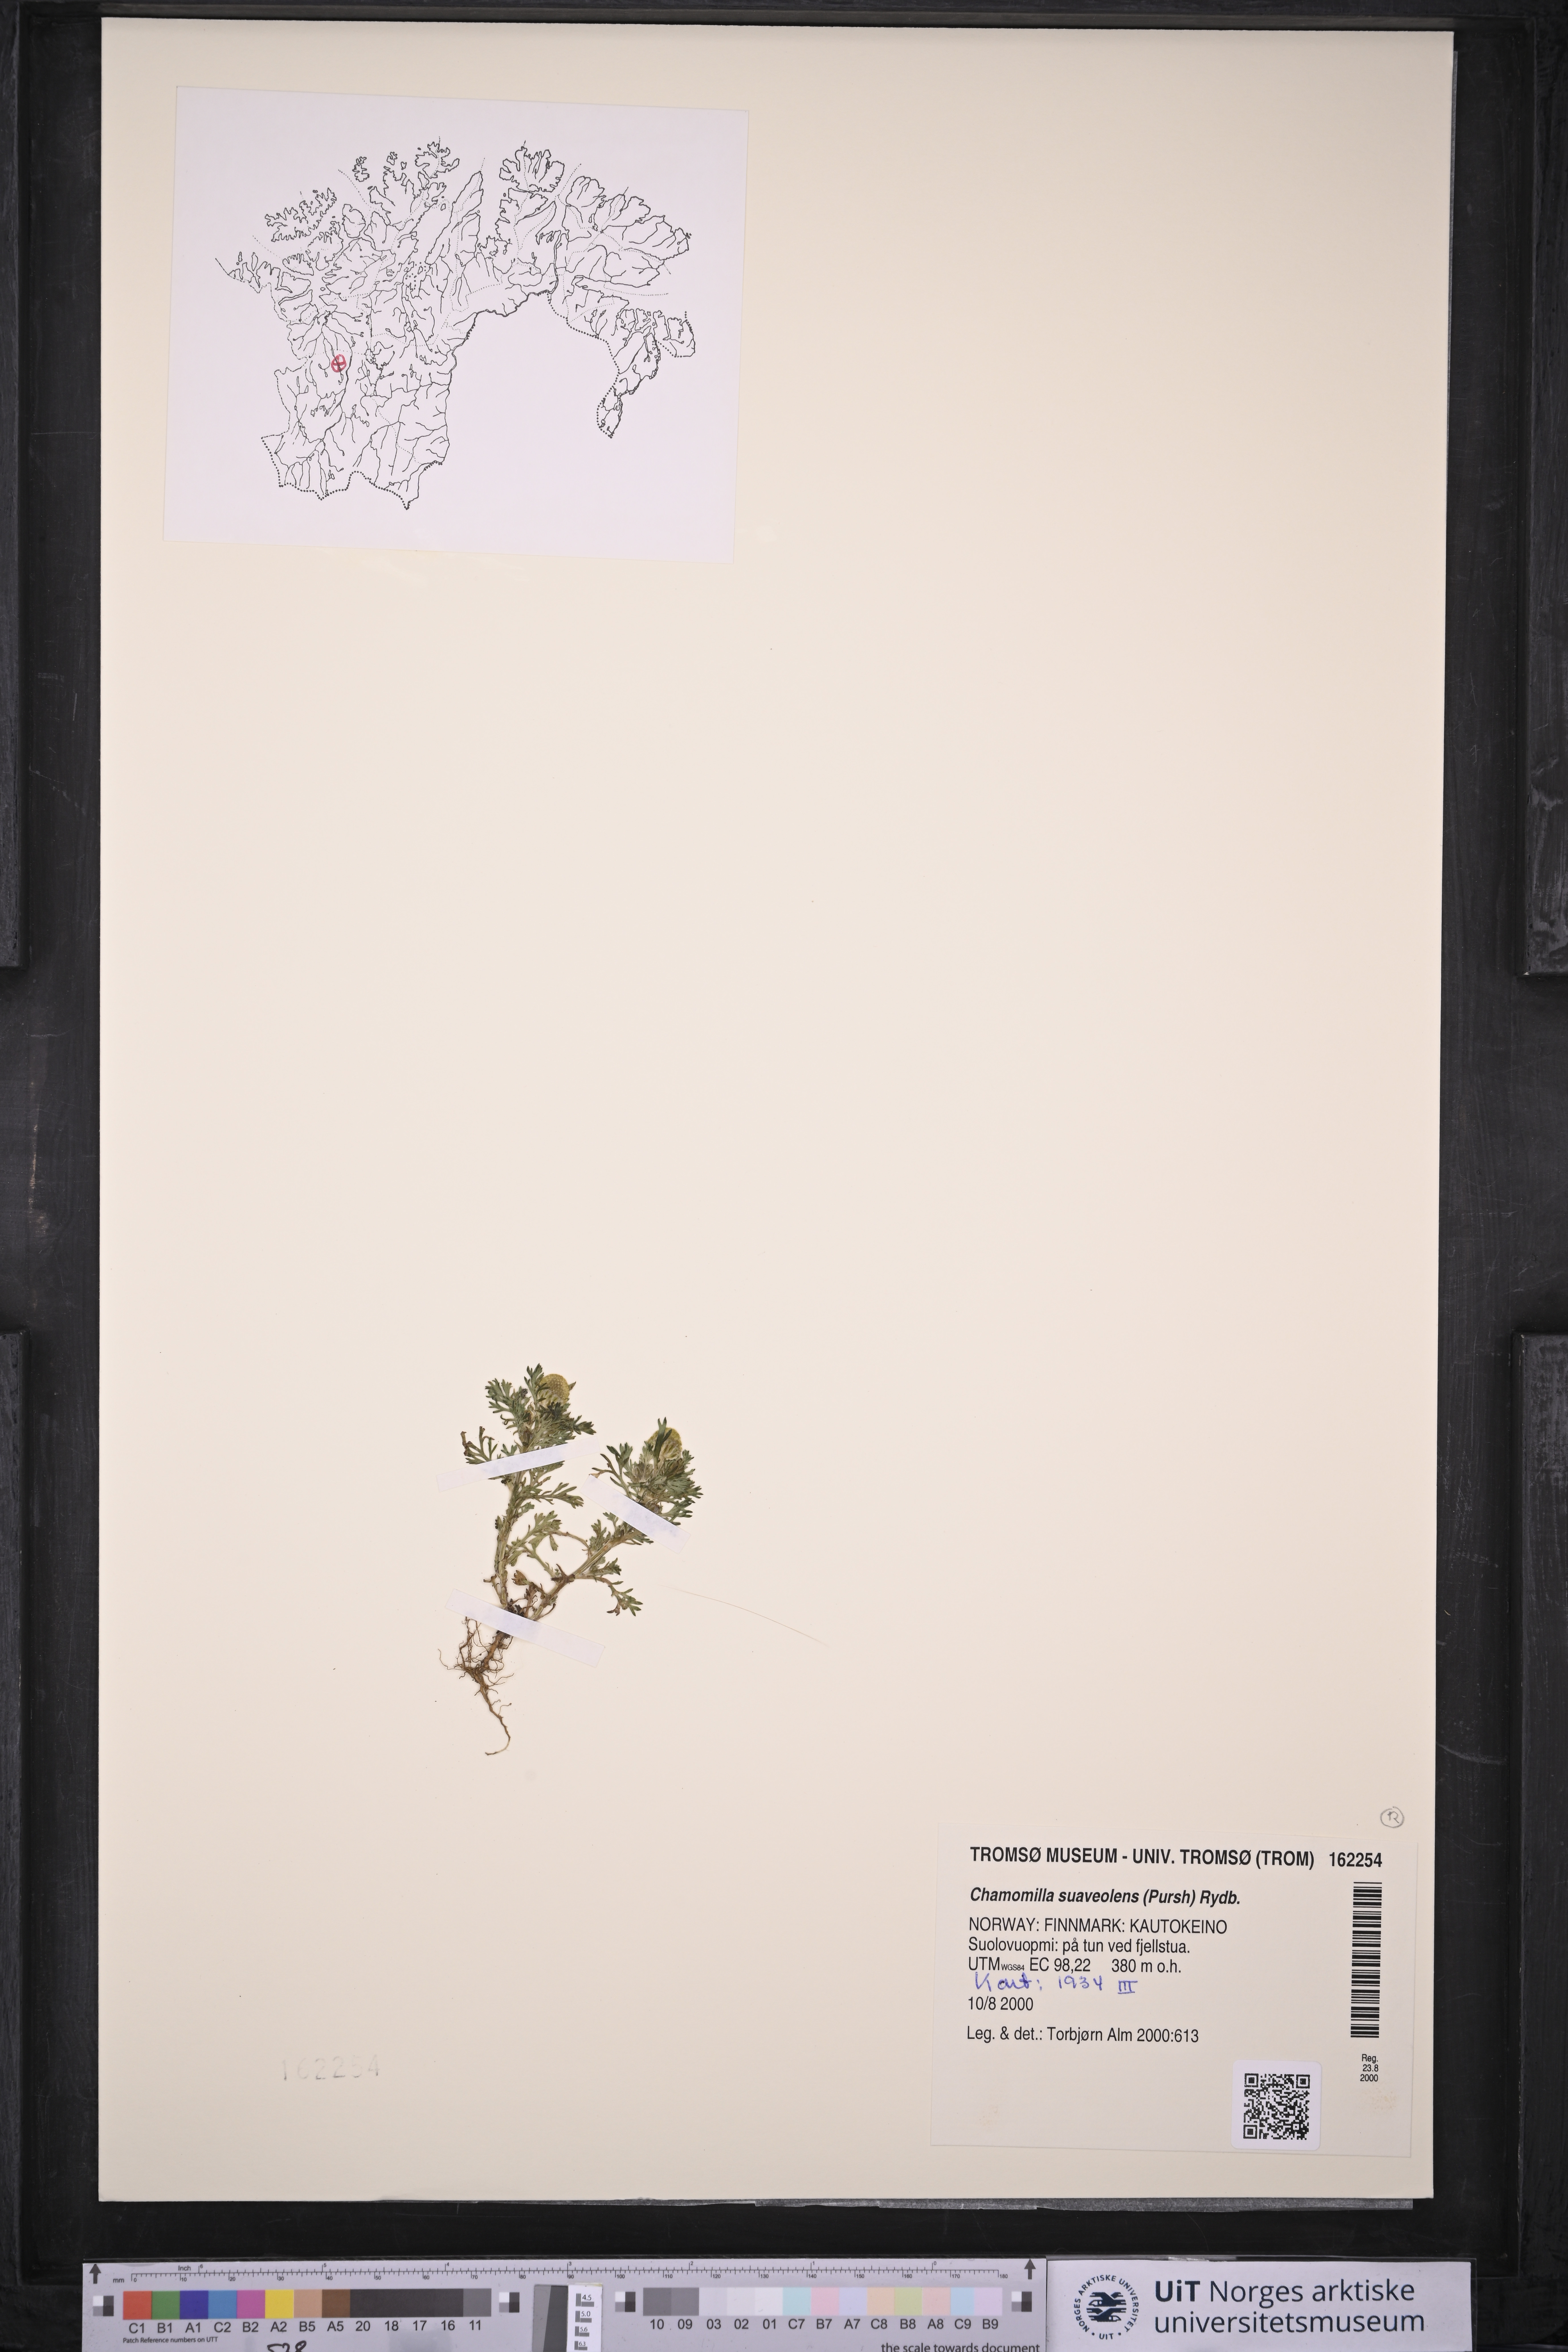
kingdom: Plantae
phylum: Tracheophyta
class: Magnoliopsida
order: Asterales
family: Asteraceae
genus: Matricaria
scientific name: Matricaria discoidea
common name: Disc mayweed
